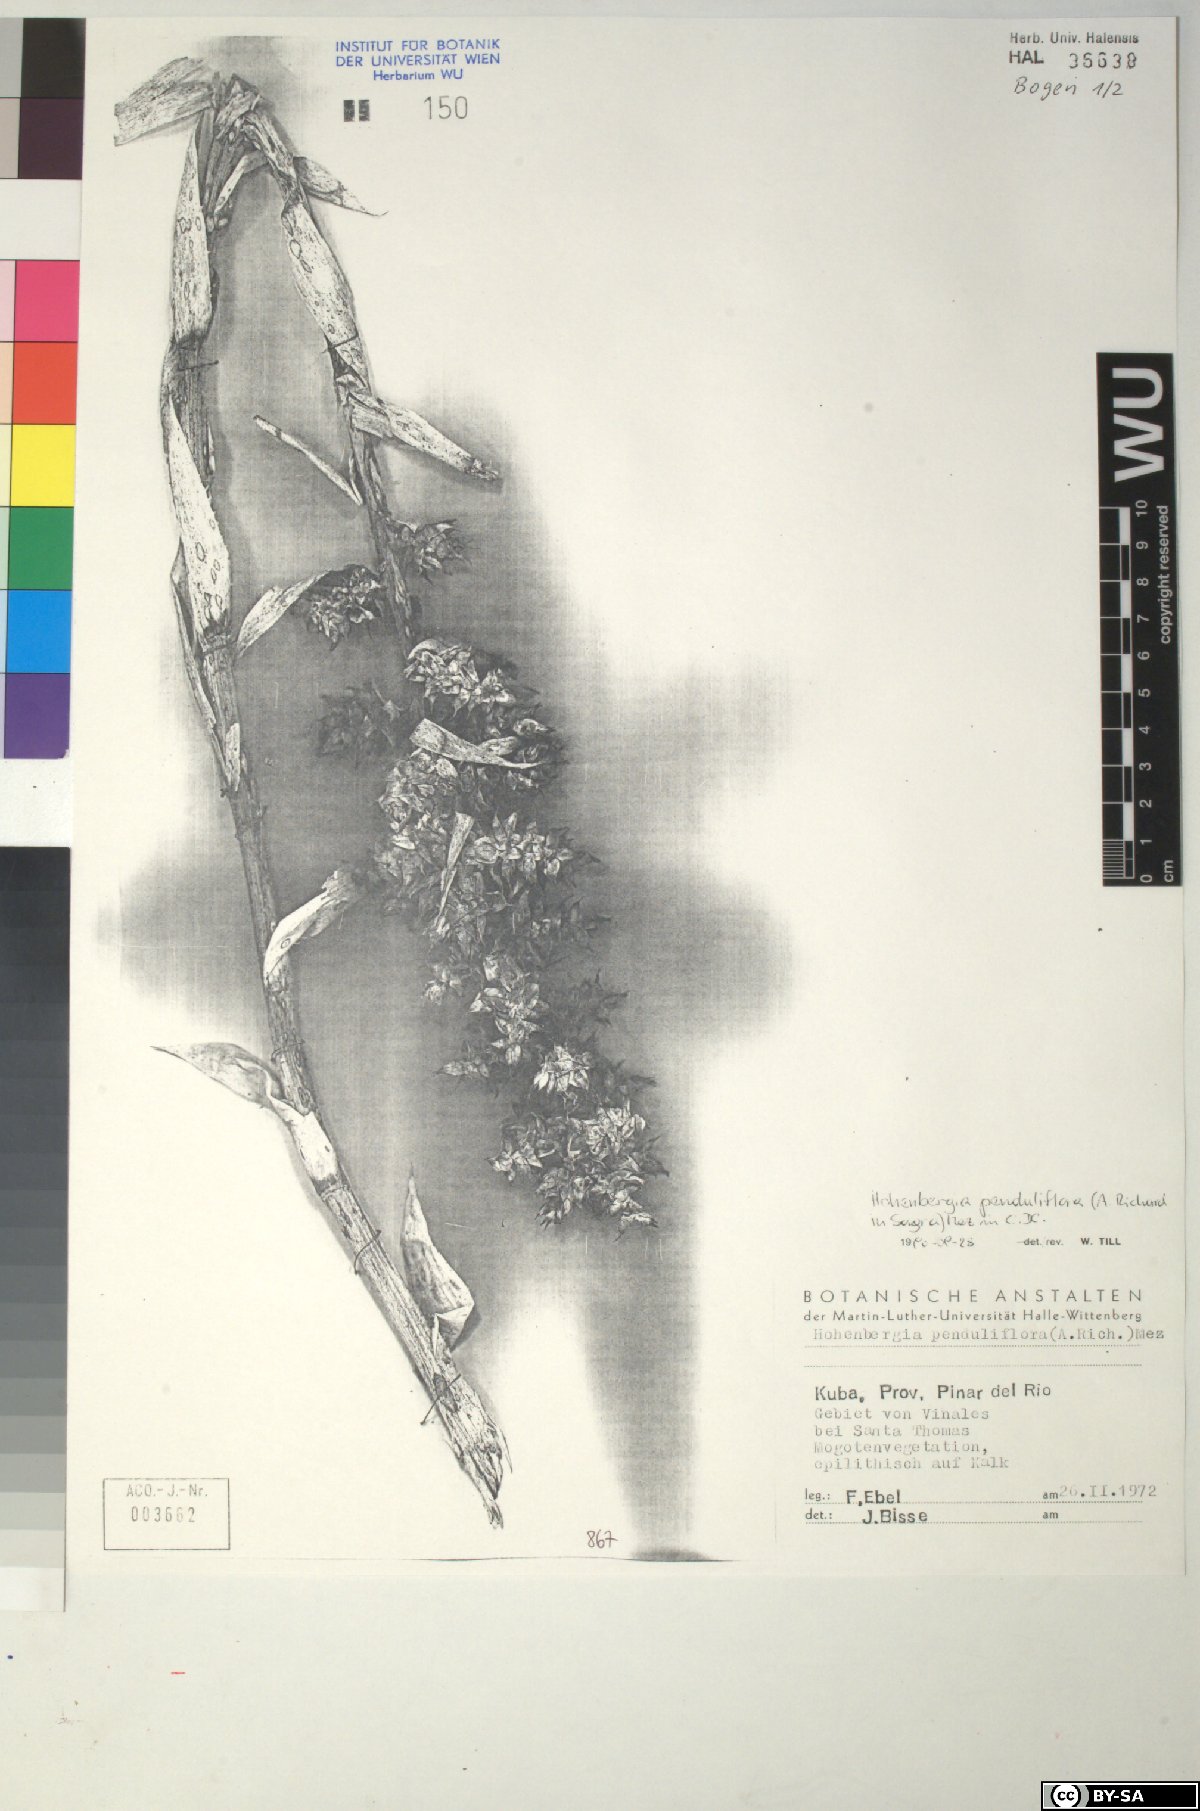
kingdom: Plantae
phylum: Tracheophyta
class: Liliopsida
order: Poales
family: Bromeliaceae
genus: Hohenbergia
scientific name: Hohenbergia
